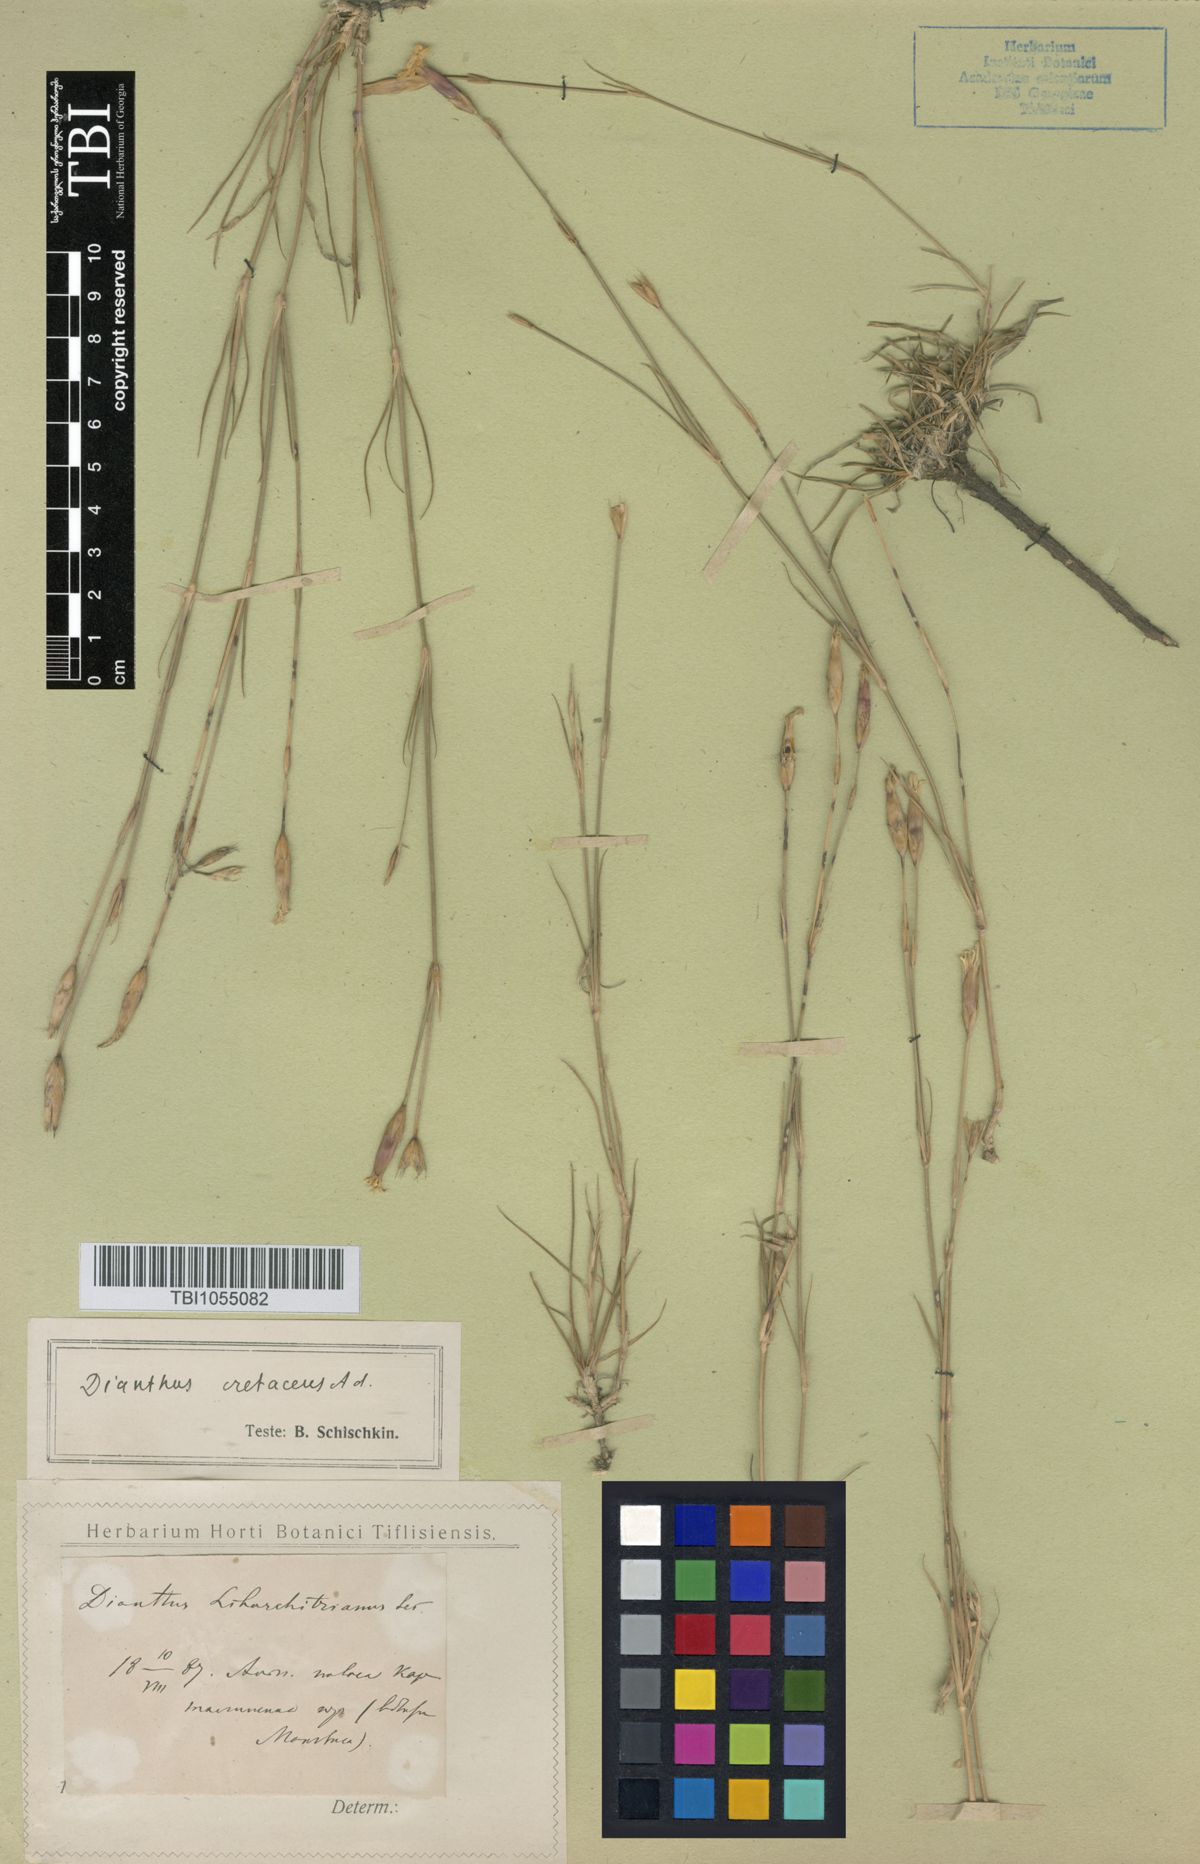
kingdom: Plantae
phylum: Tracheophyta
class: Magnoliopsida
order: Caryophyllales
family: Caryophyllaceae
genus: Dianthus
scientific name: Dianthus cretaceus
